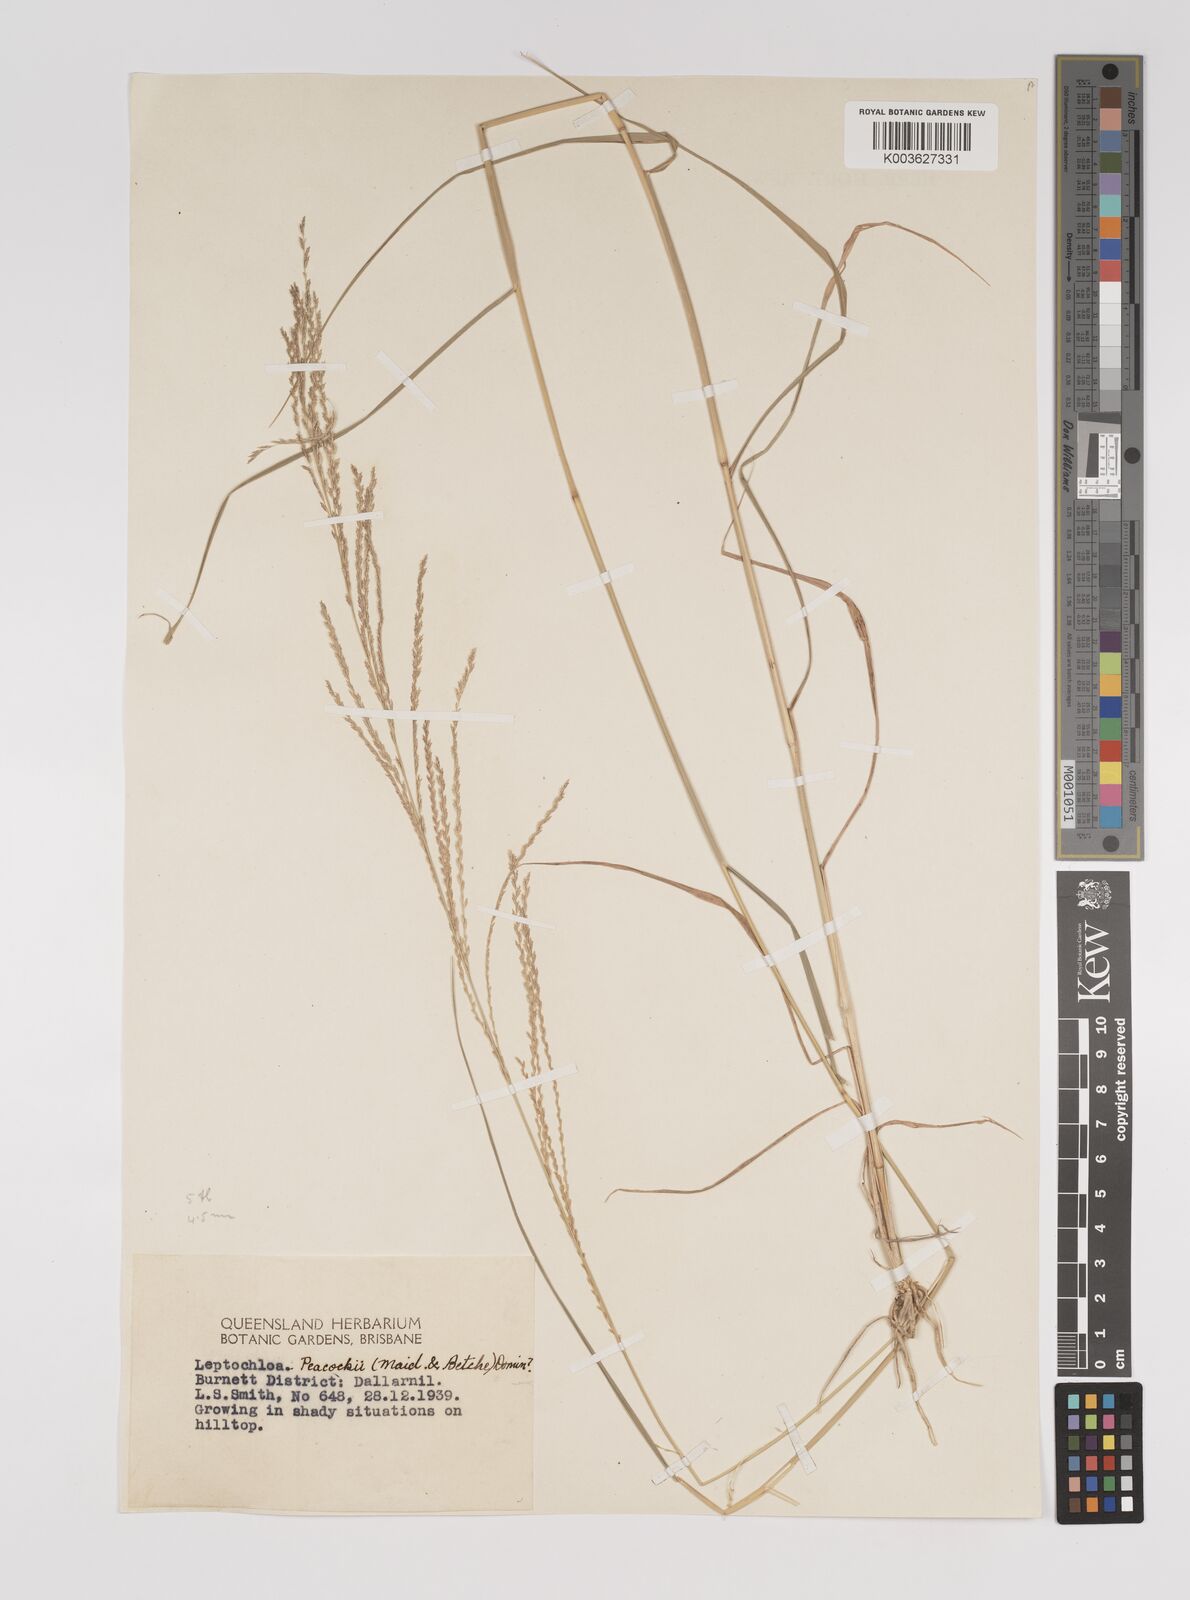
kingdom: Plantae
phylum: Tracheophyta
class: Liliopsida
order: Poales
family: Poaceae
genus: Leptochloa
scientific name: Leptochloa decipiens
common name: Australian sprangletop
